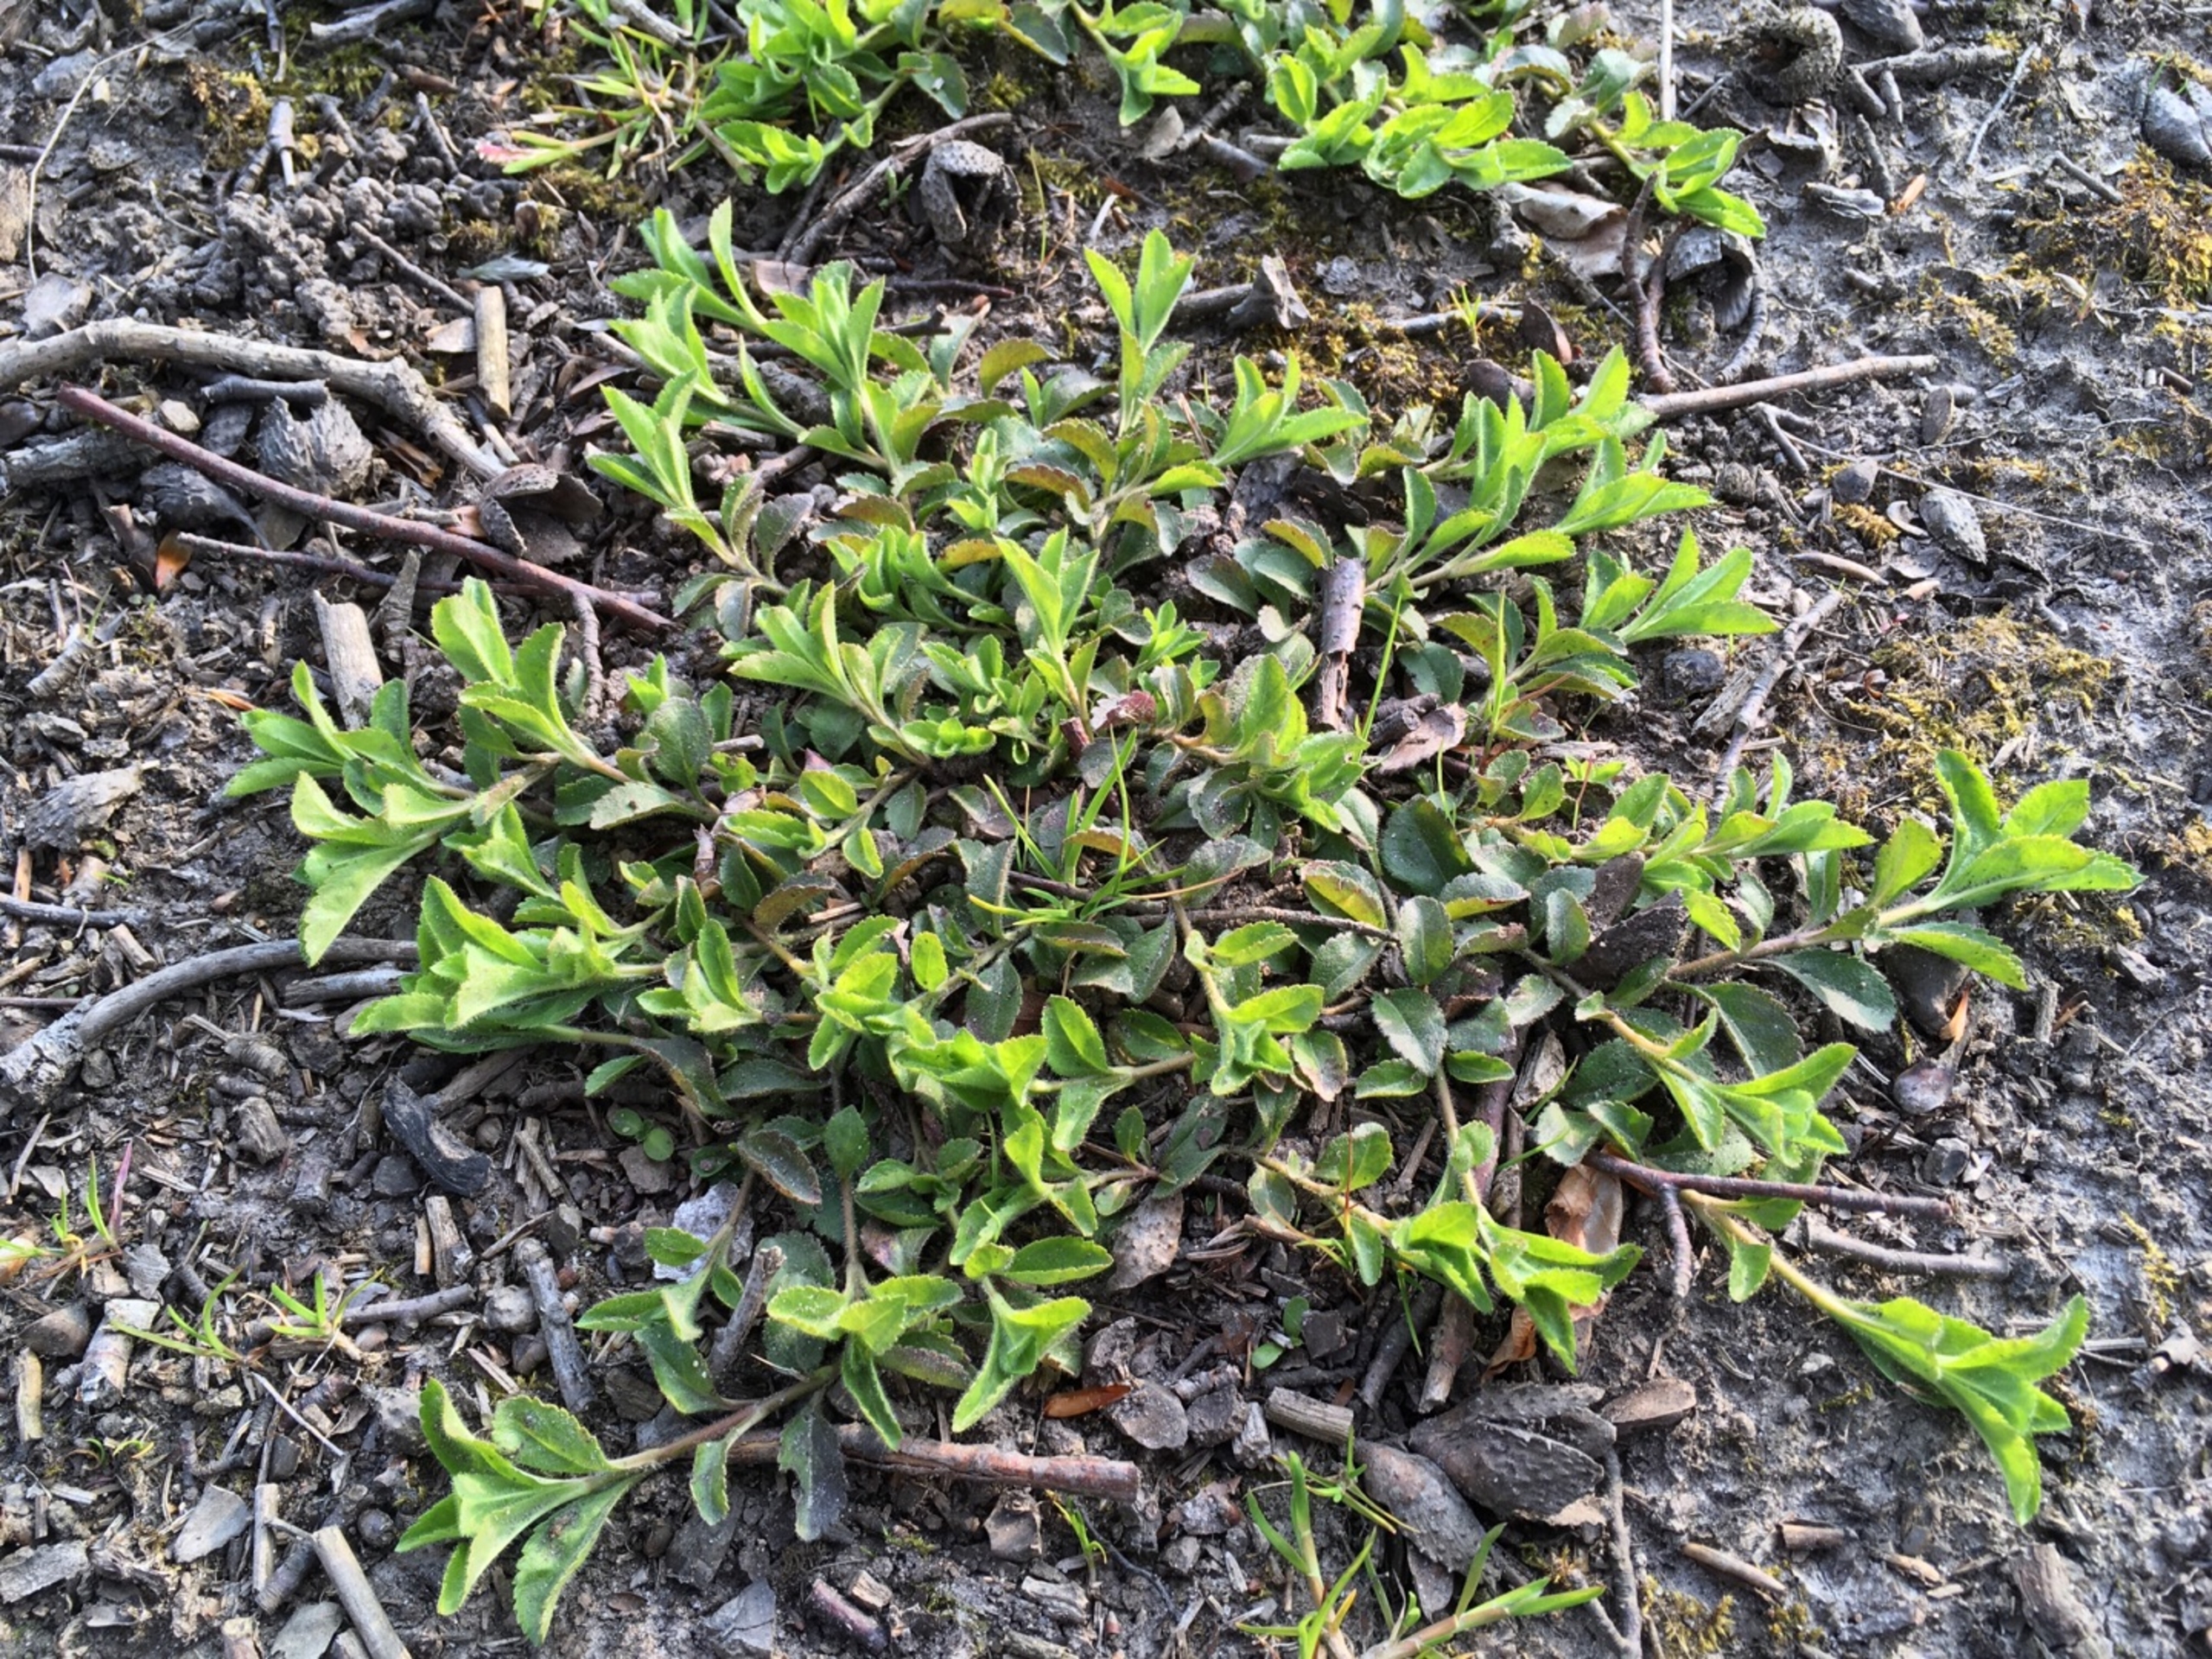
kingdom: Plantae
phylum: Tracheophyta
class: Magnoliopsida
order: Lamiales
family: Plantaginaceae
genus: Veronica
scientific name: Veronica officinalis
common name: Læge-ærenpris
